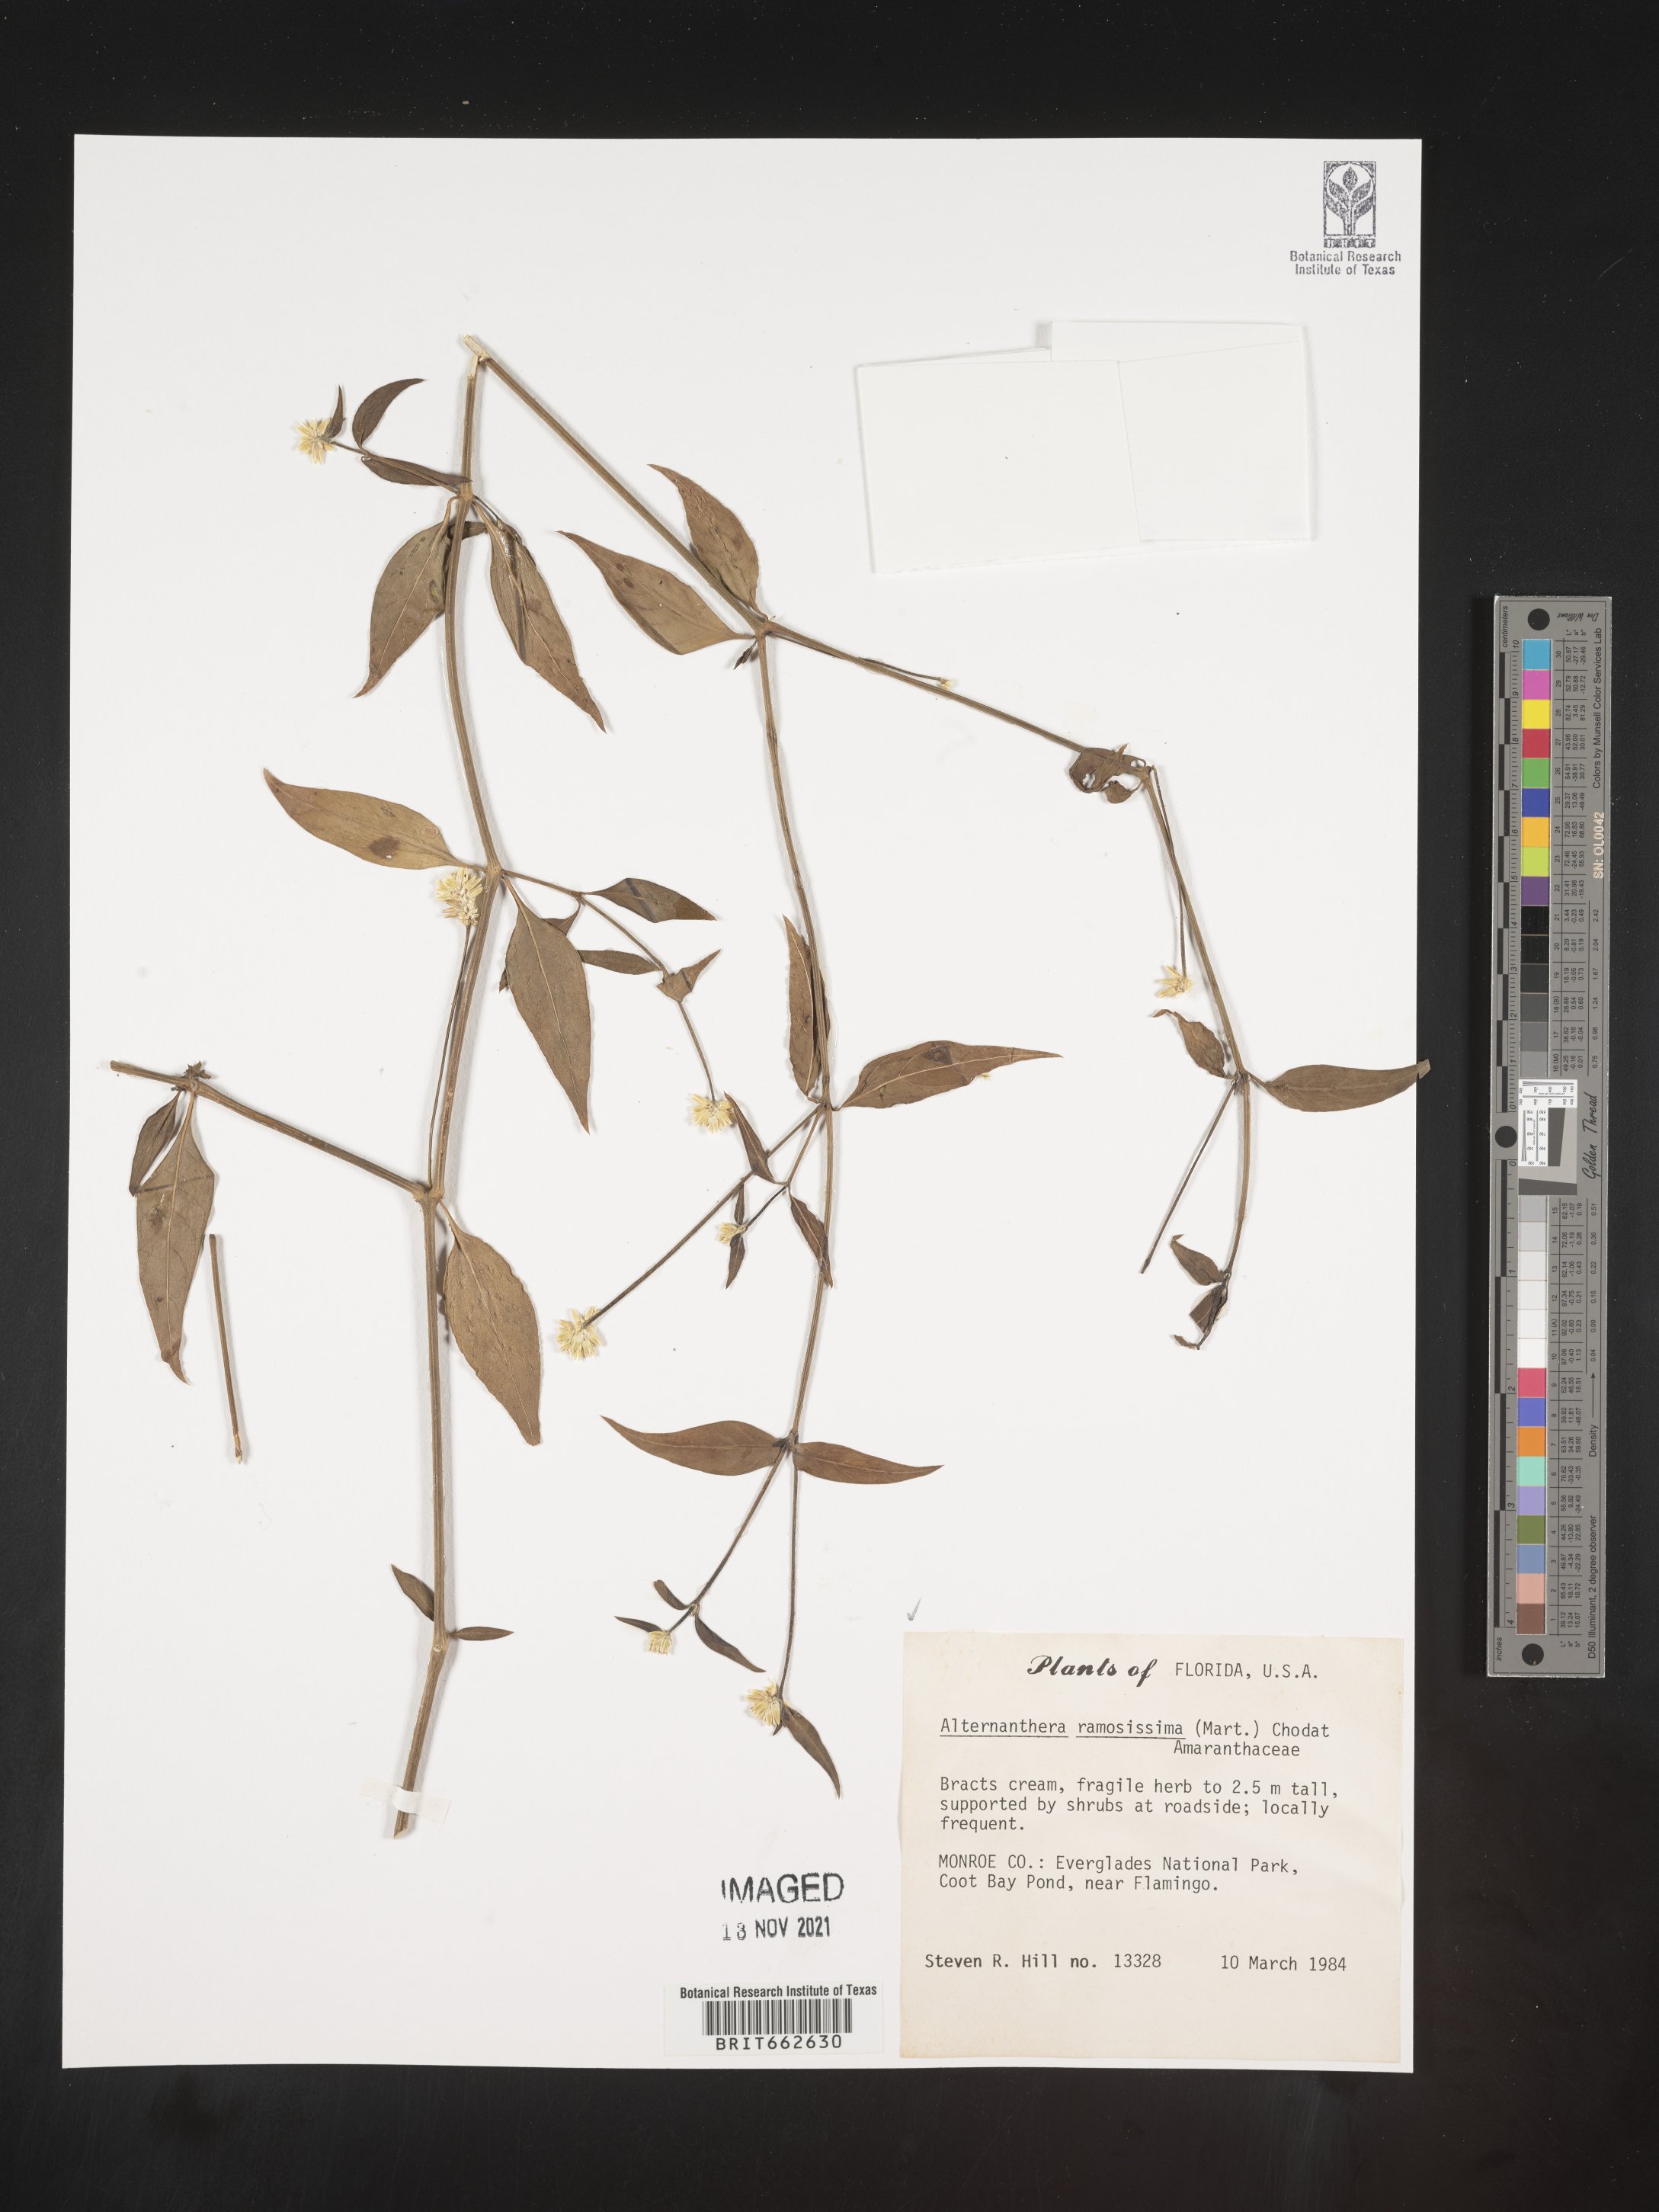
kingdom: Plantae
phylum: Tracheophyta
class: Magnoliopsida
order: Caryophyllales
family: Amaranthaceae
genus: Alternanthera
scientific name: Alternanthera ramosissima
